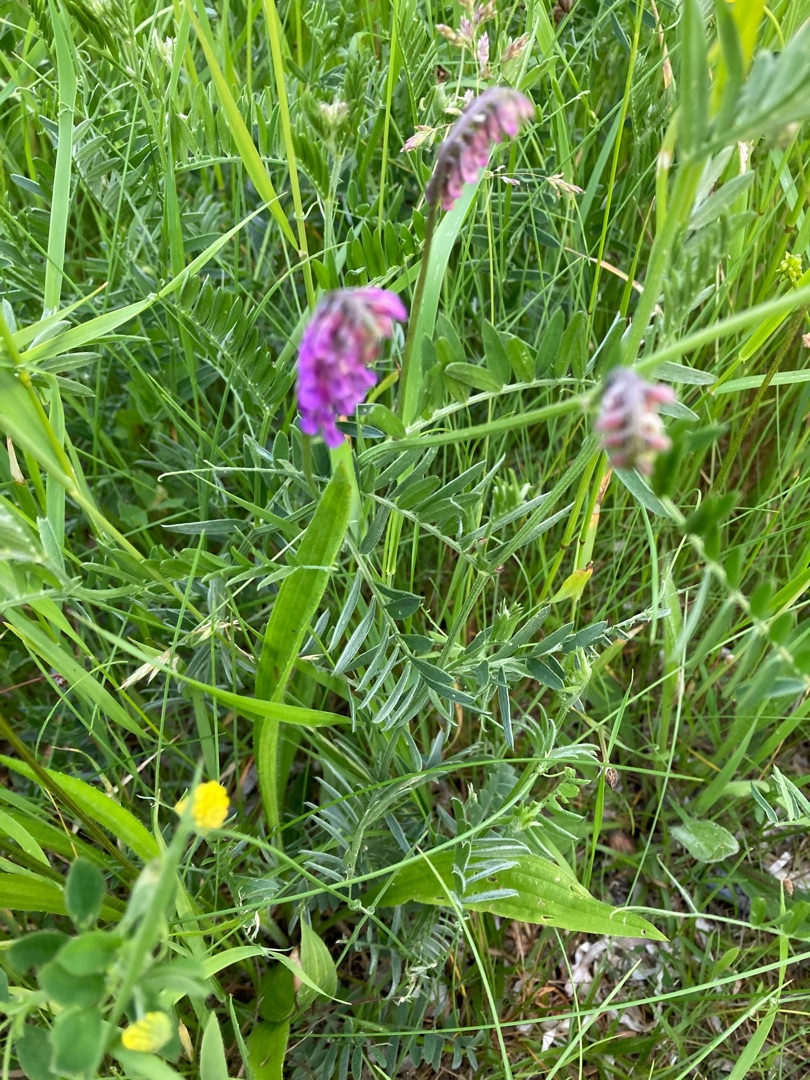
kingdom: Plantae
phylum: Tracheophyta
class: Magnoliopsida
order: Fabales
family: Fabaceae
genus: Vicia
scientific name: Vicia cracca
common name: Muse-vikke
